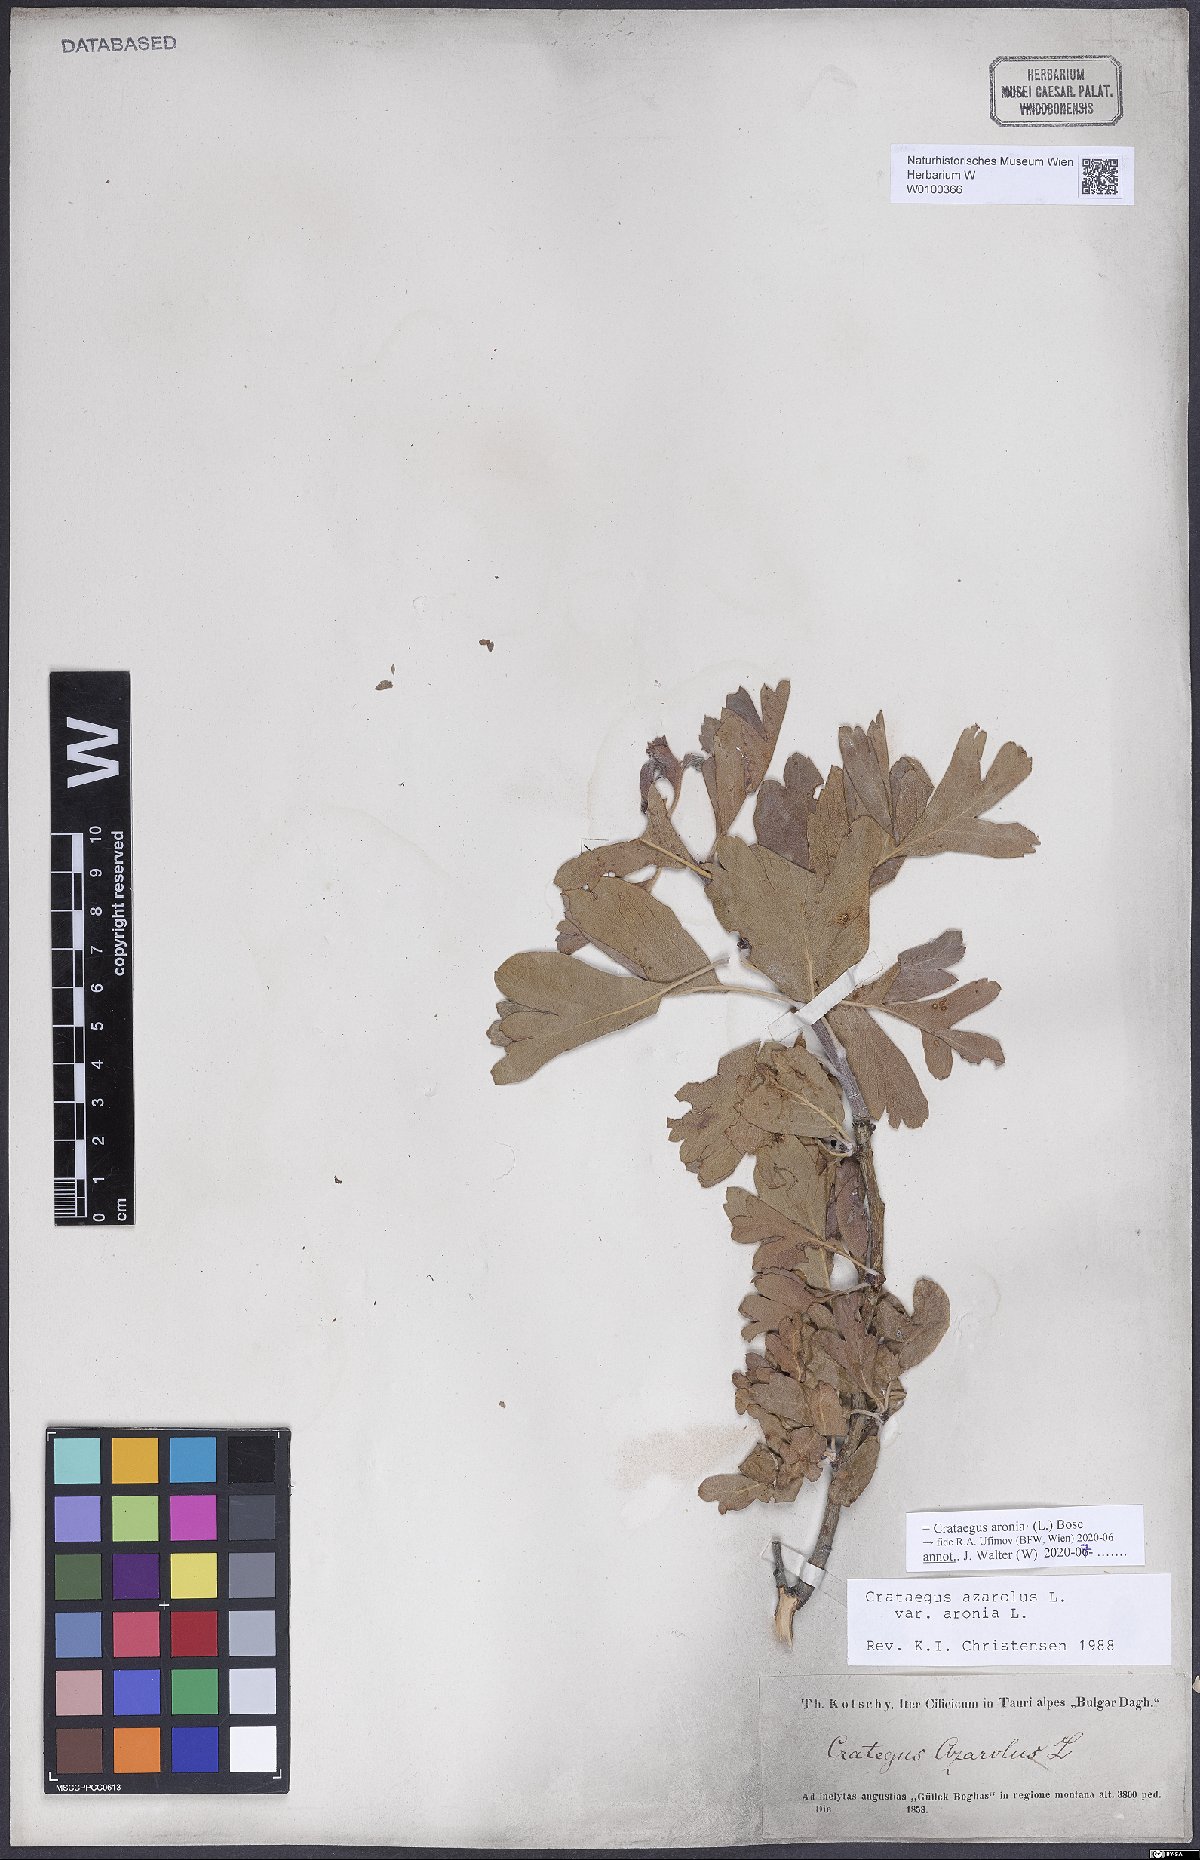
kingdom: Plantae
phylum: Tracheophyta
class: Magnoliopsida
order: Rosales
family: Rosaceae
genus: Crataegus
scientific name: Crataegus azarolus
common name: Azarole
